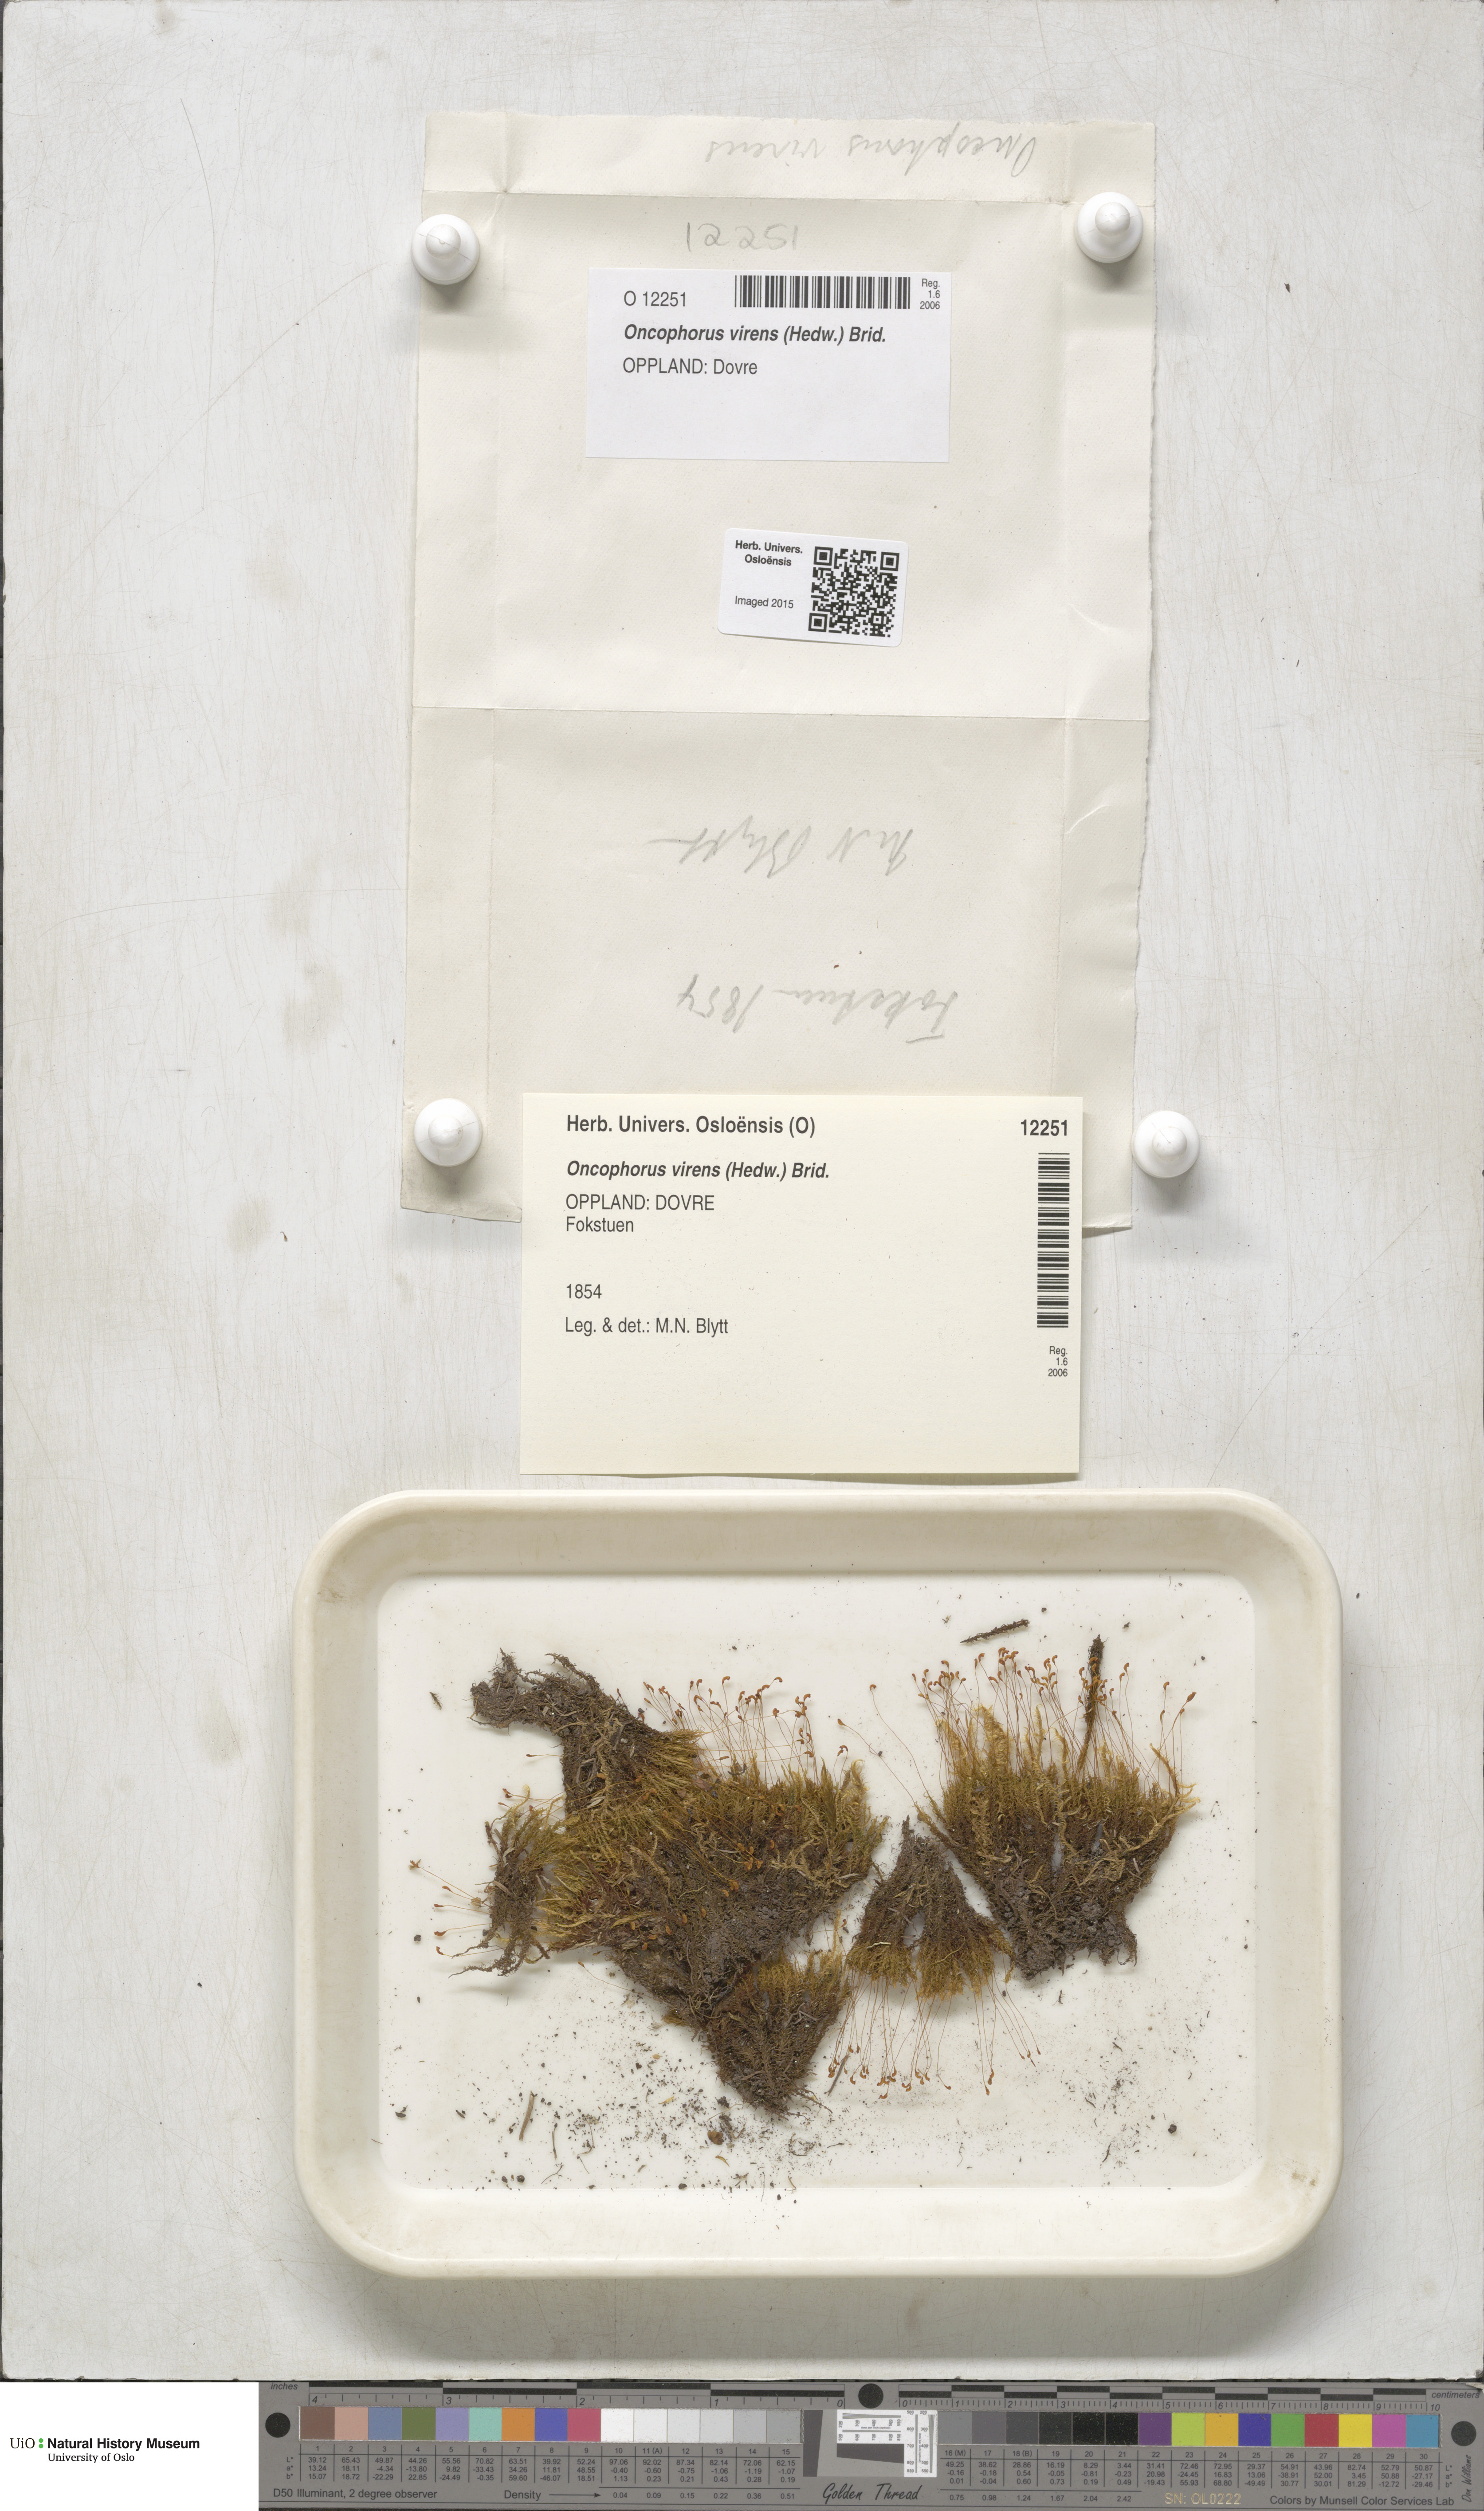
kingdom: Plantae
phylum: Bryophyta
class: Bryopsida
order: Dicranales
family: Rhabdoweisiaceae
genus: Oncophorus
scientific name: Oncophorus virens
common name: Green spur moss
